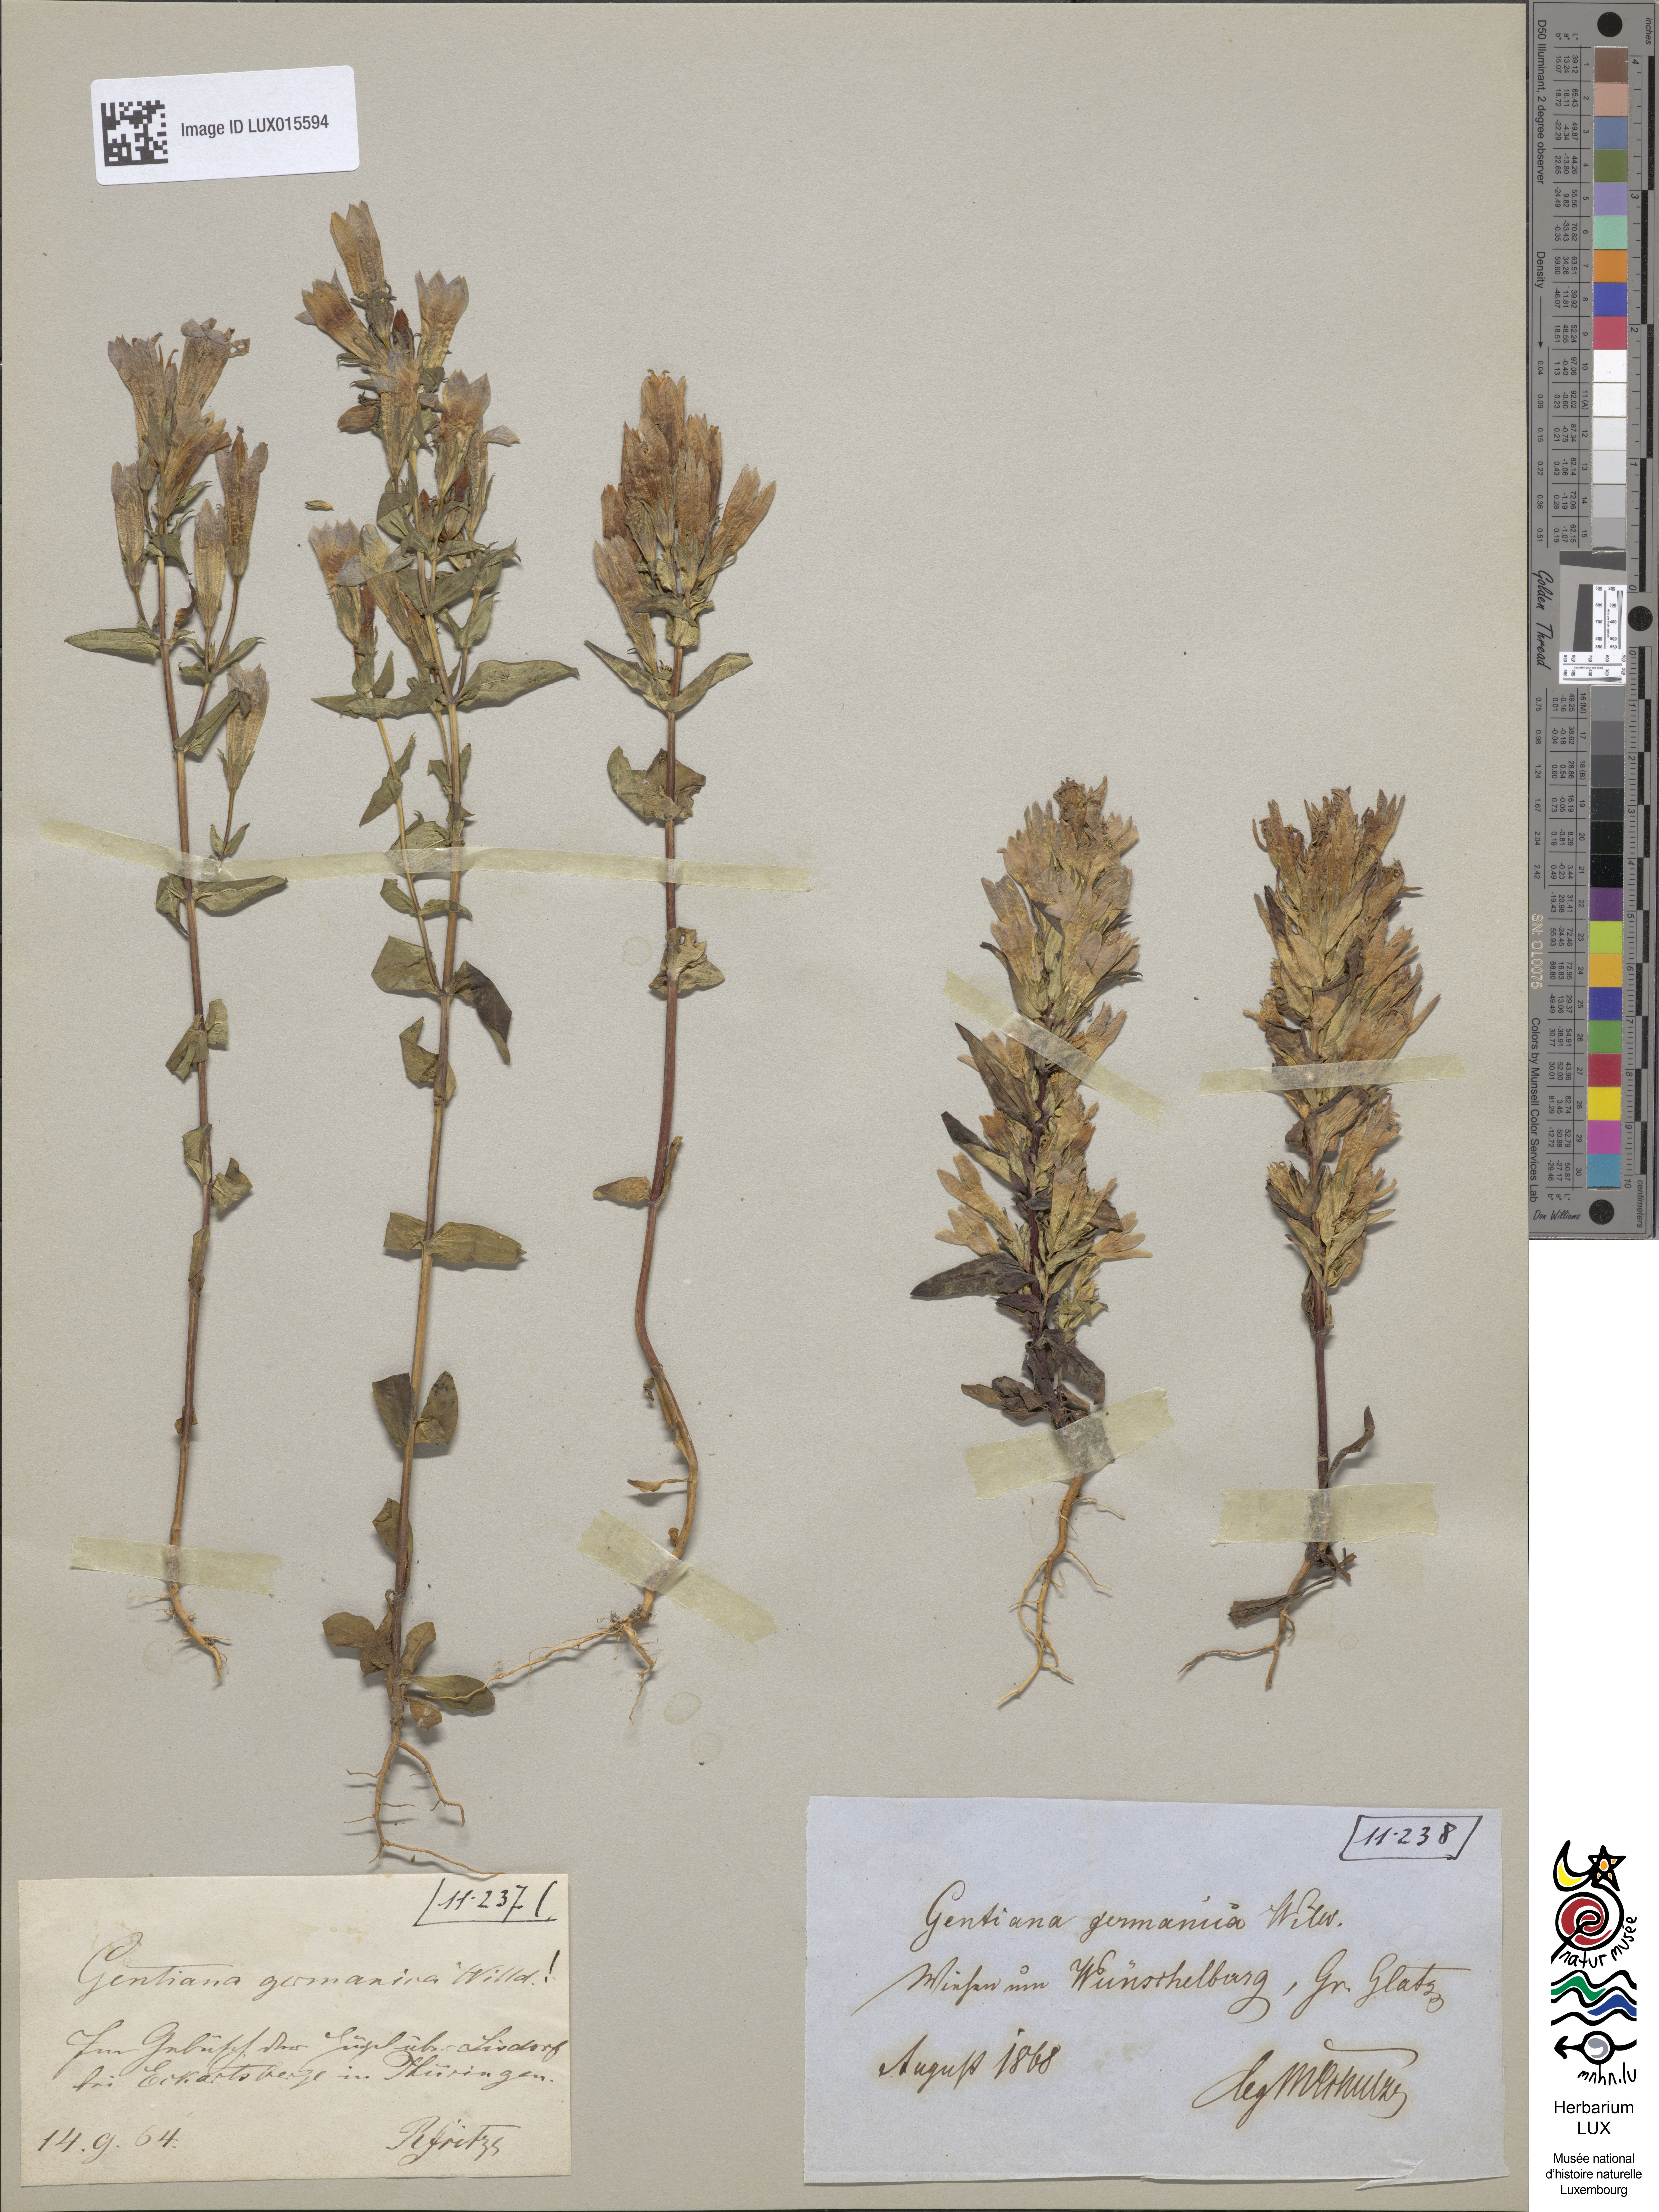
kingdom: Plantae
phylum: Tracheophyta
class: Magnoliopsida
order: Gentianales
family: Gentianaceae
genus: Gentianella
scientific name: Gentianella germanica
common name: Chiltern-gentian
